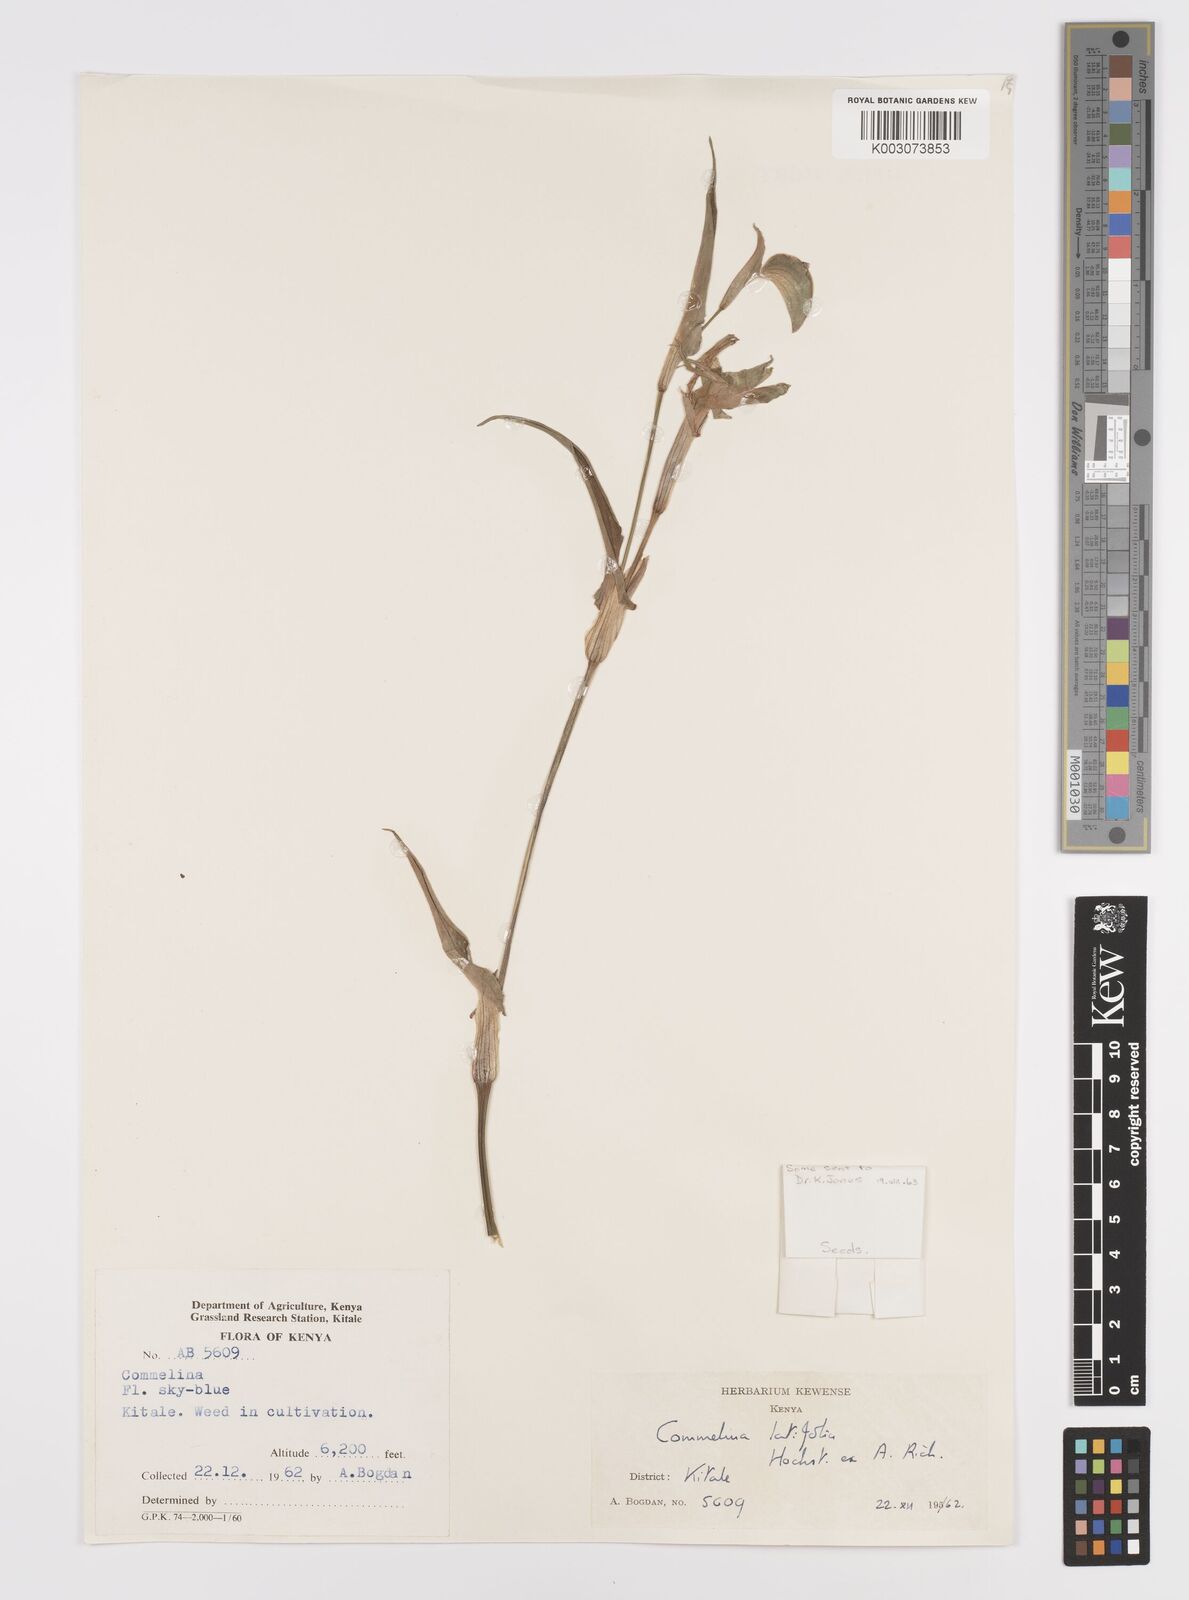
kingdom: Plantae
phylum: Tracheophyta
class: Liliopsida
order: Commelinales
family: Commelinaceae
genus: Commelina
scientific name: Commelina latifolia
